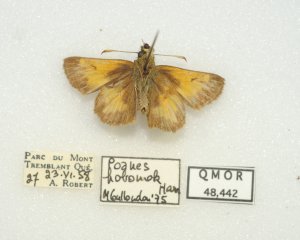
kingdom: Animalia
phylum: Arthropoda
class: Insecta
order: Lepidoptera
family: Hesperiidae
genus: Lon
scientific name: Lon hobomok
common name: Hobomok Skipper
